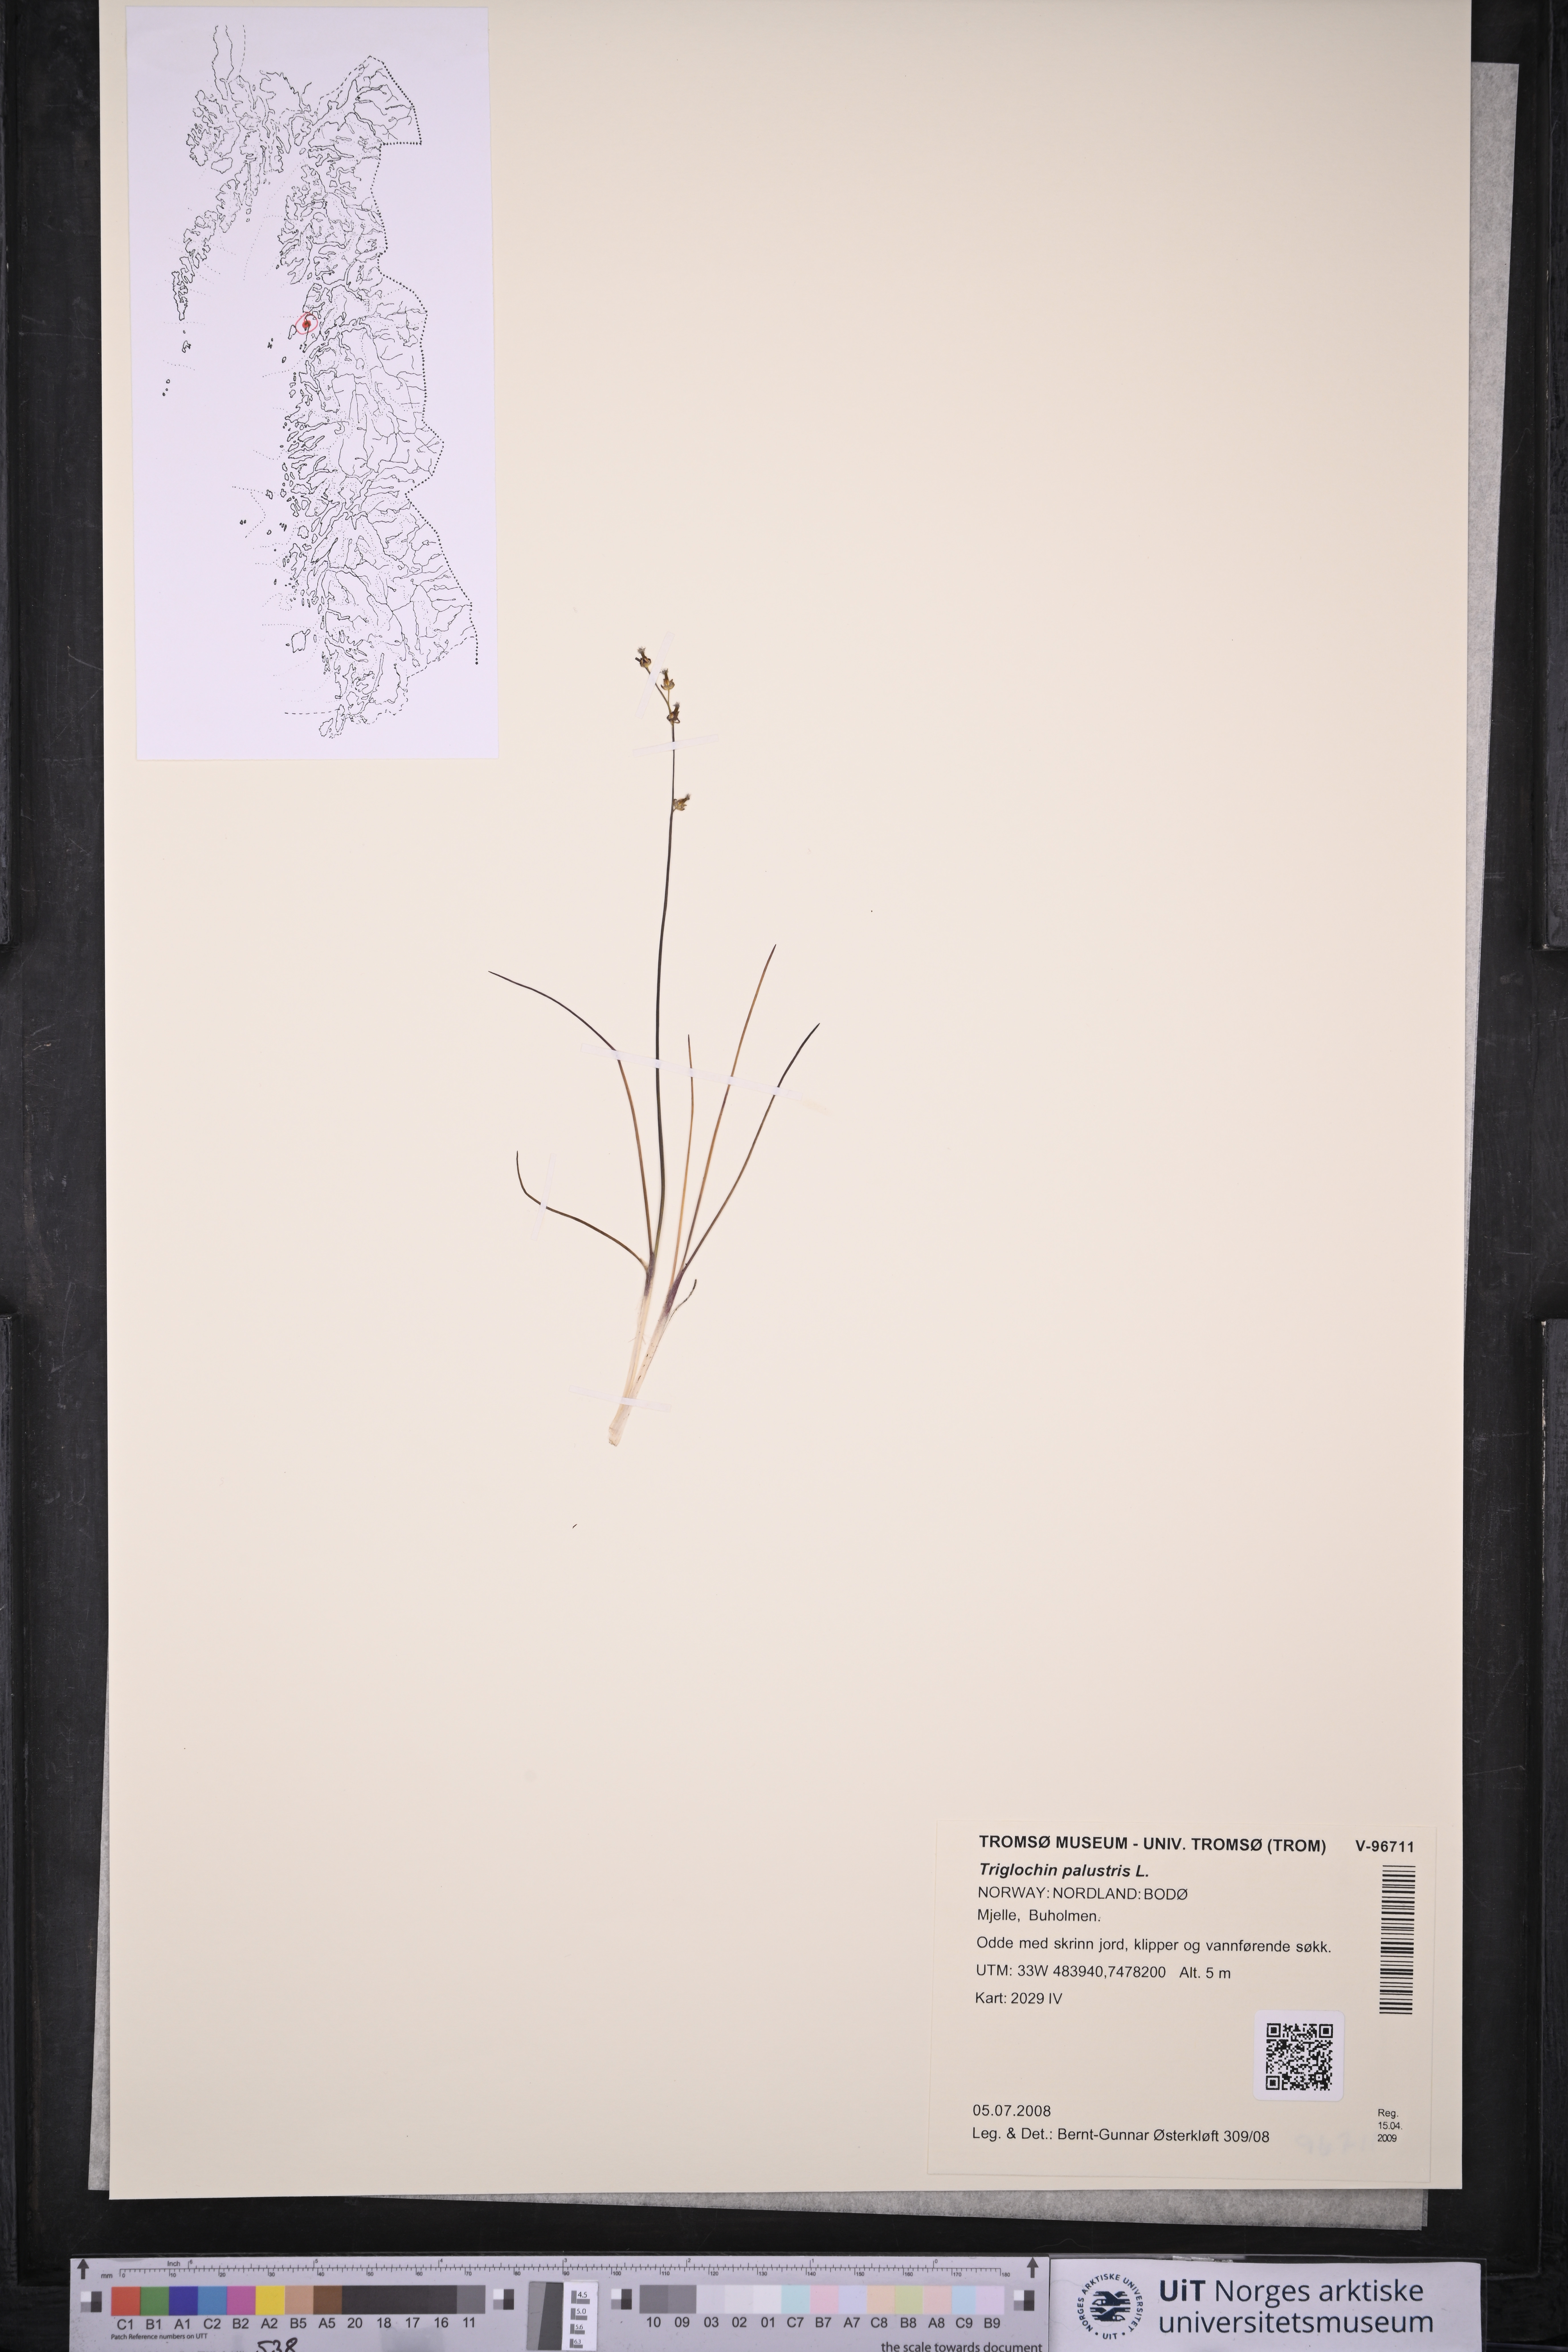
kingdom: Plantae
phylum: Tracheophyta
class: Liliopsida
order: Alismatales
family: Juncaginaceae
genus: Triglochin
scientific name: Triglochin palustris
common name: Marsh arrowgrass
